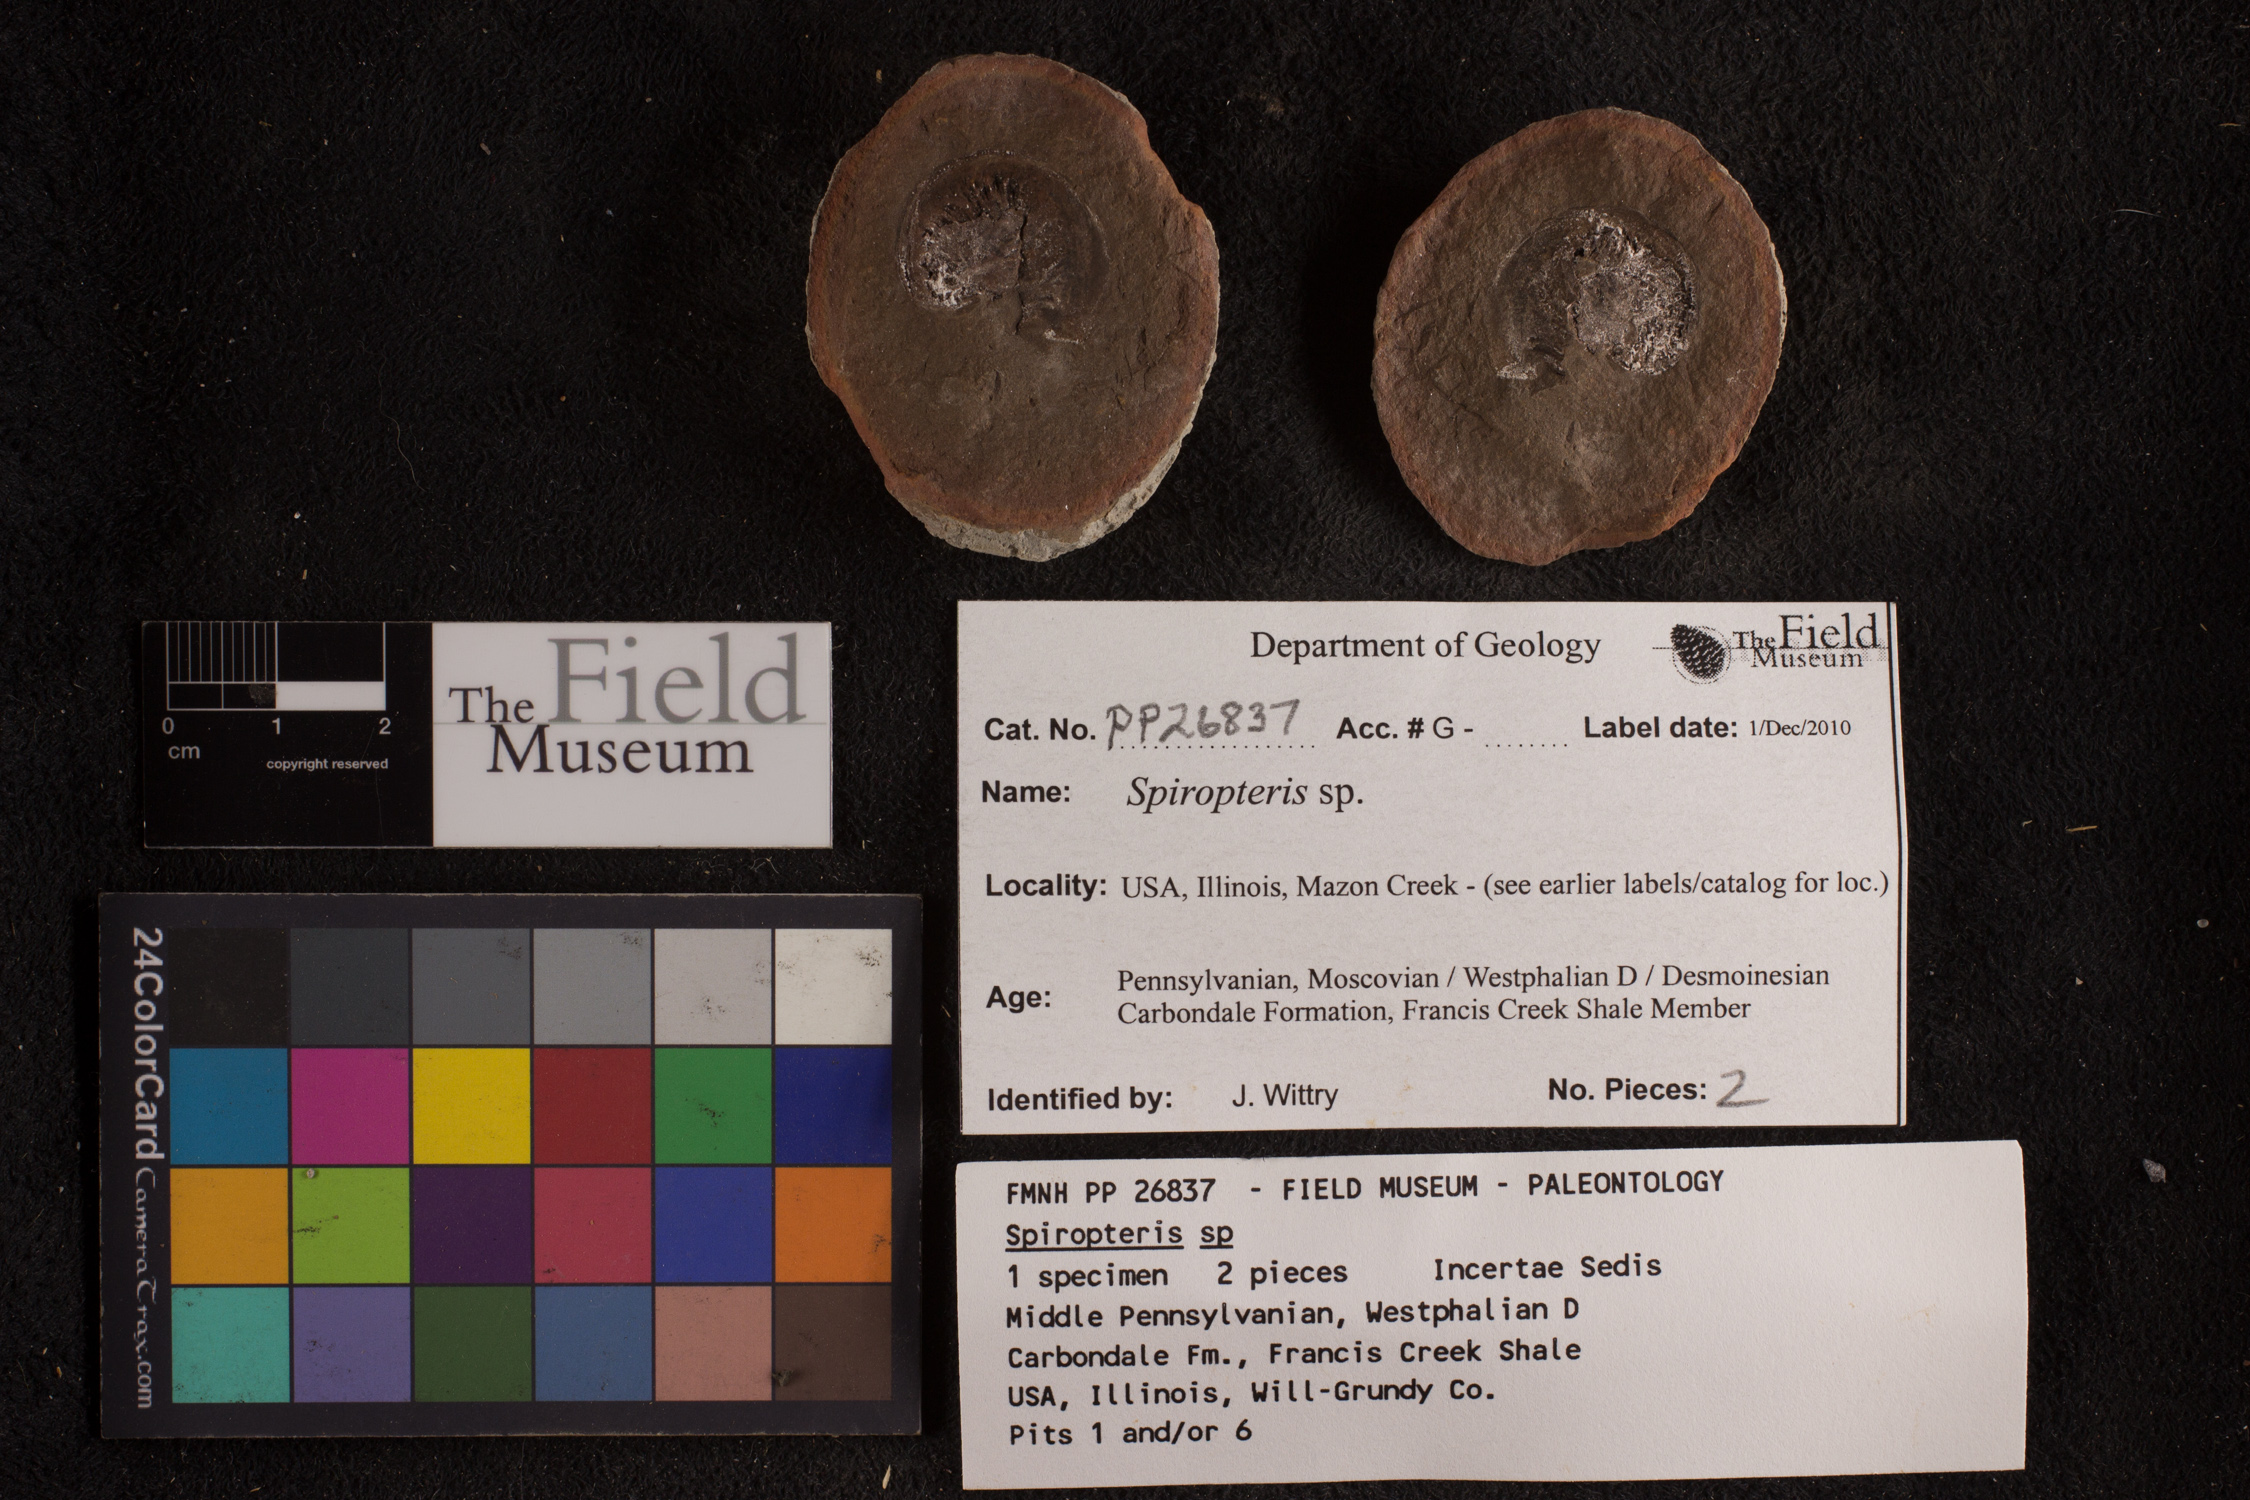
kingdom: Plantae
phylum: Tracheophyta
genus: Spiropteris
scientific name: Spiropteris
